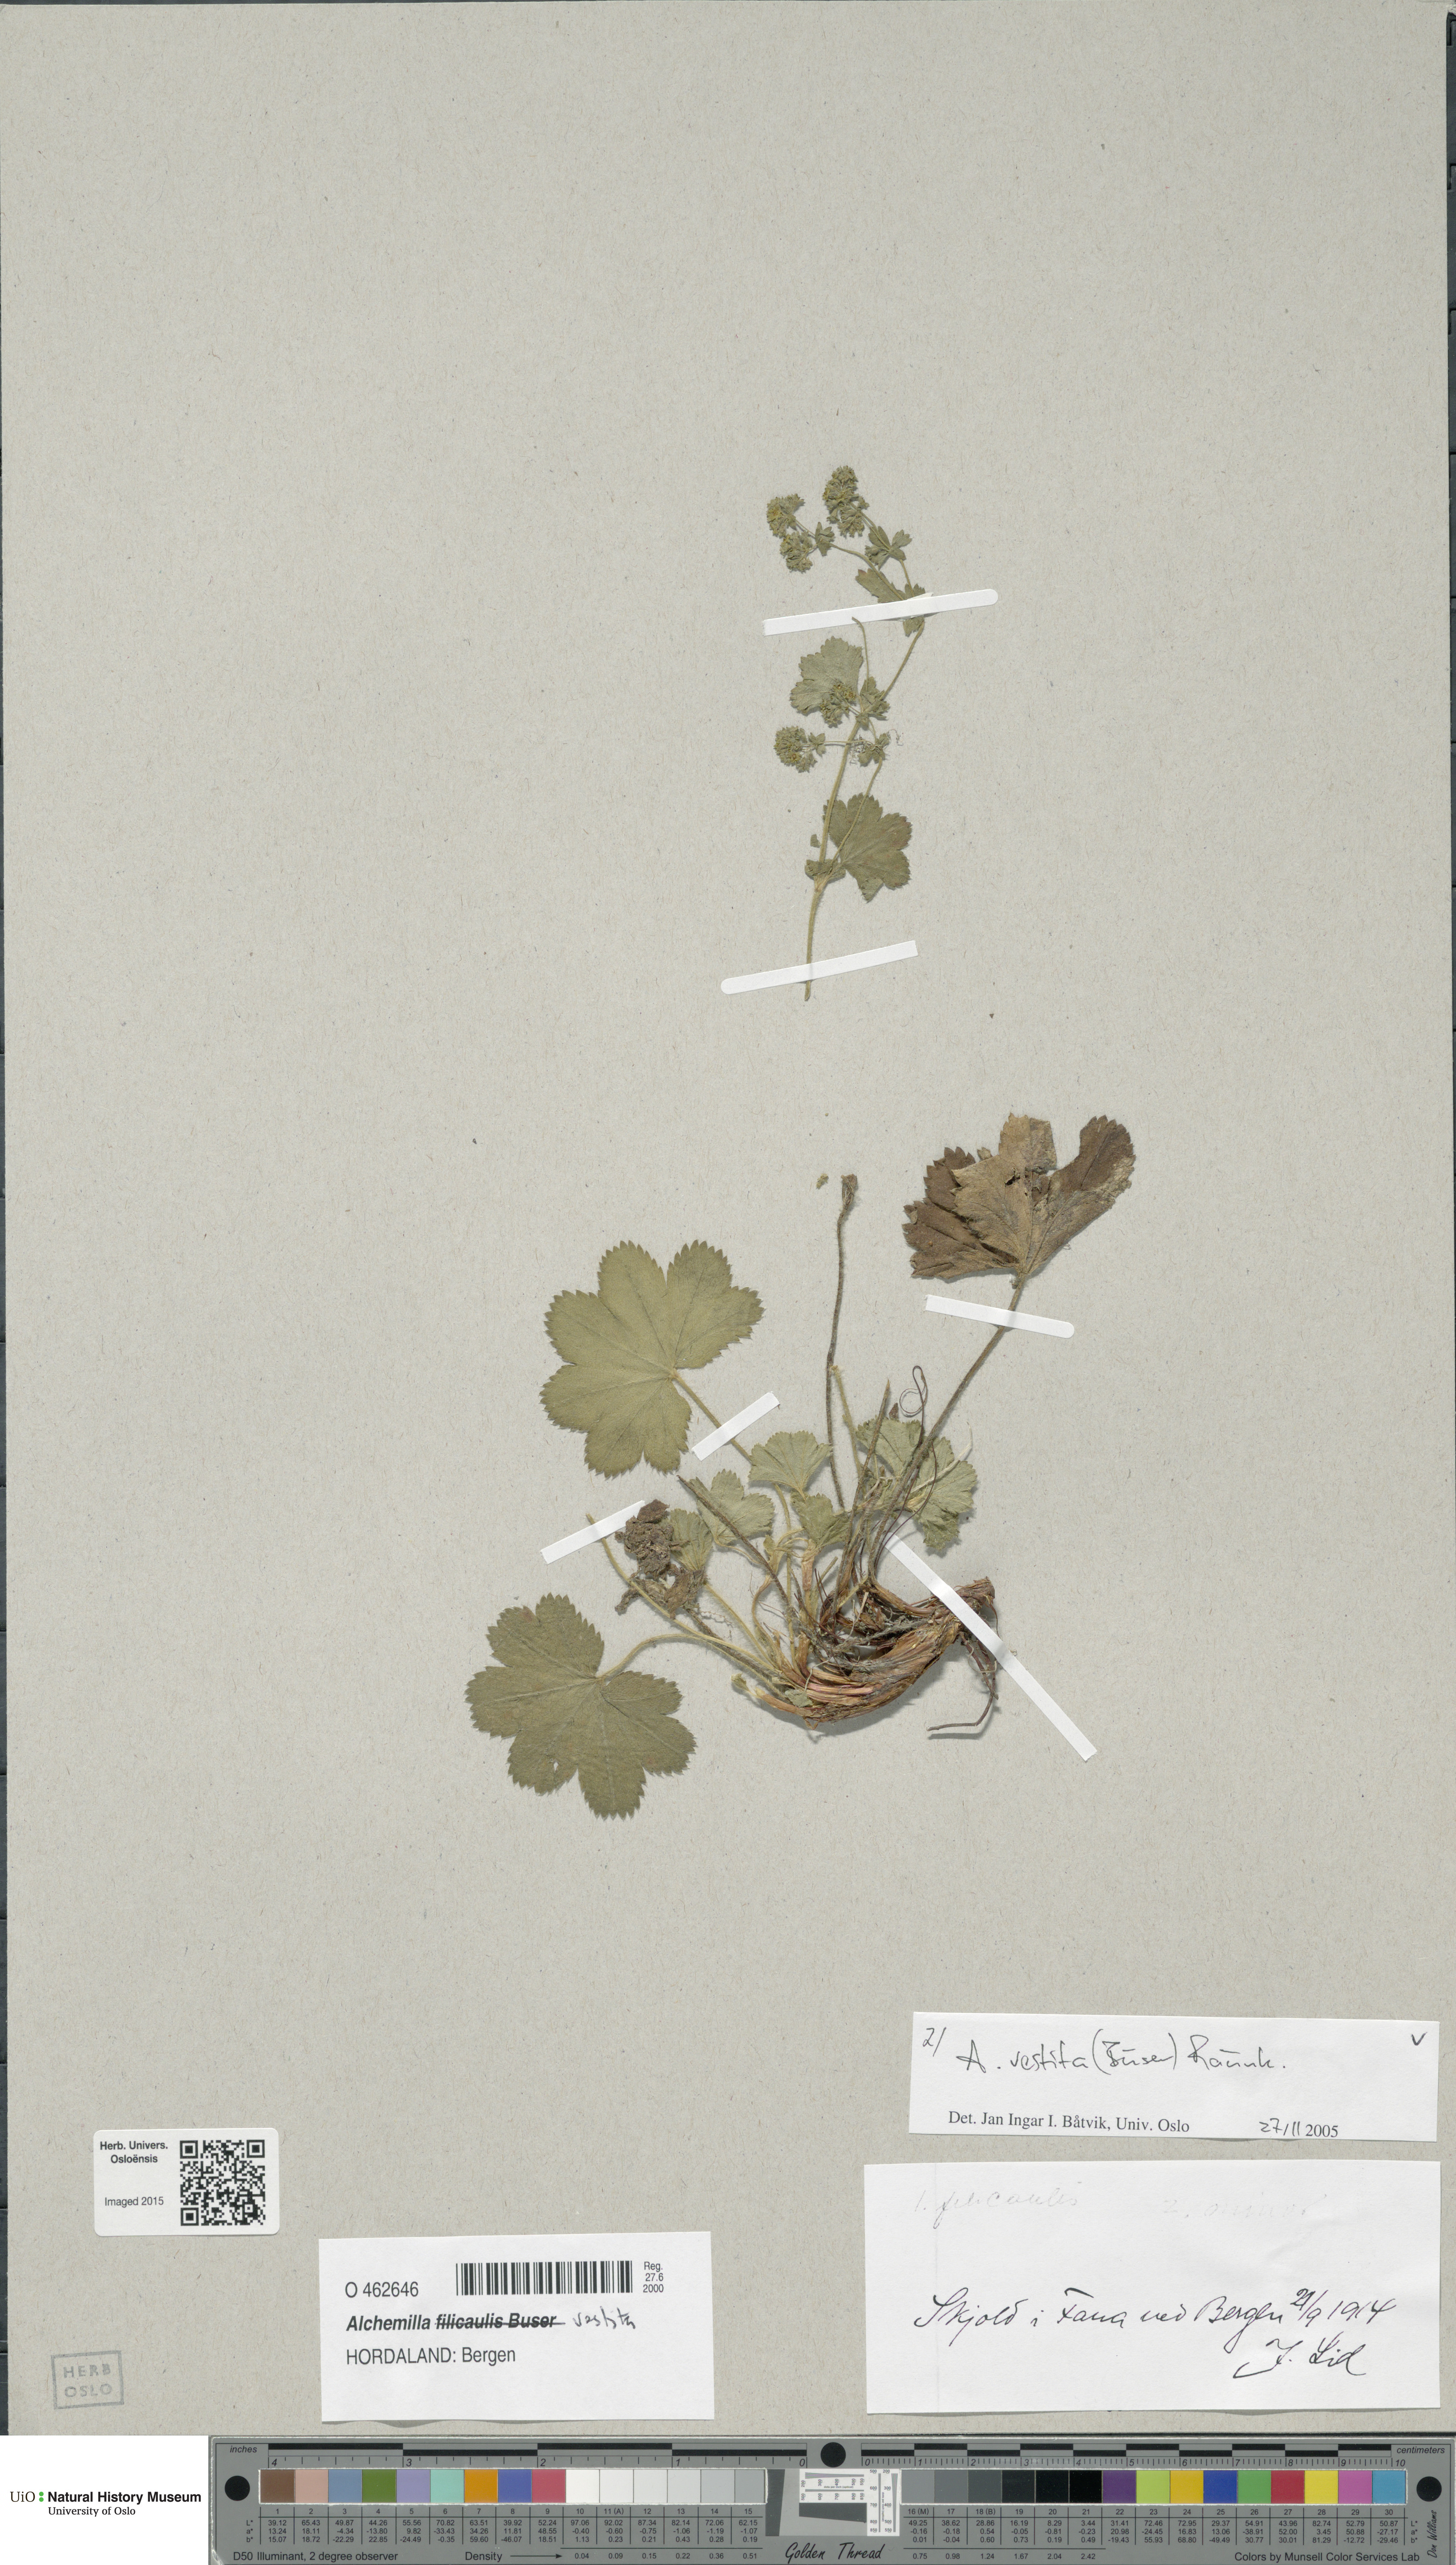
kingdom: Plantae
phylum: Tracheophyta
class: Magnoliopsida
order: Rosales
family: Rosaceae
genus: Alchemilla
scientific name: Alchemilla filicaulis
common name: Hairy lady's-mantle
